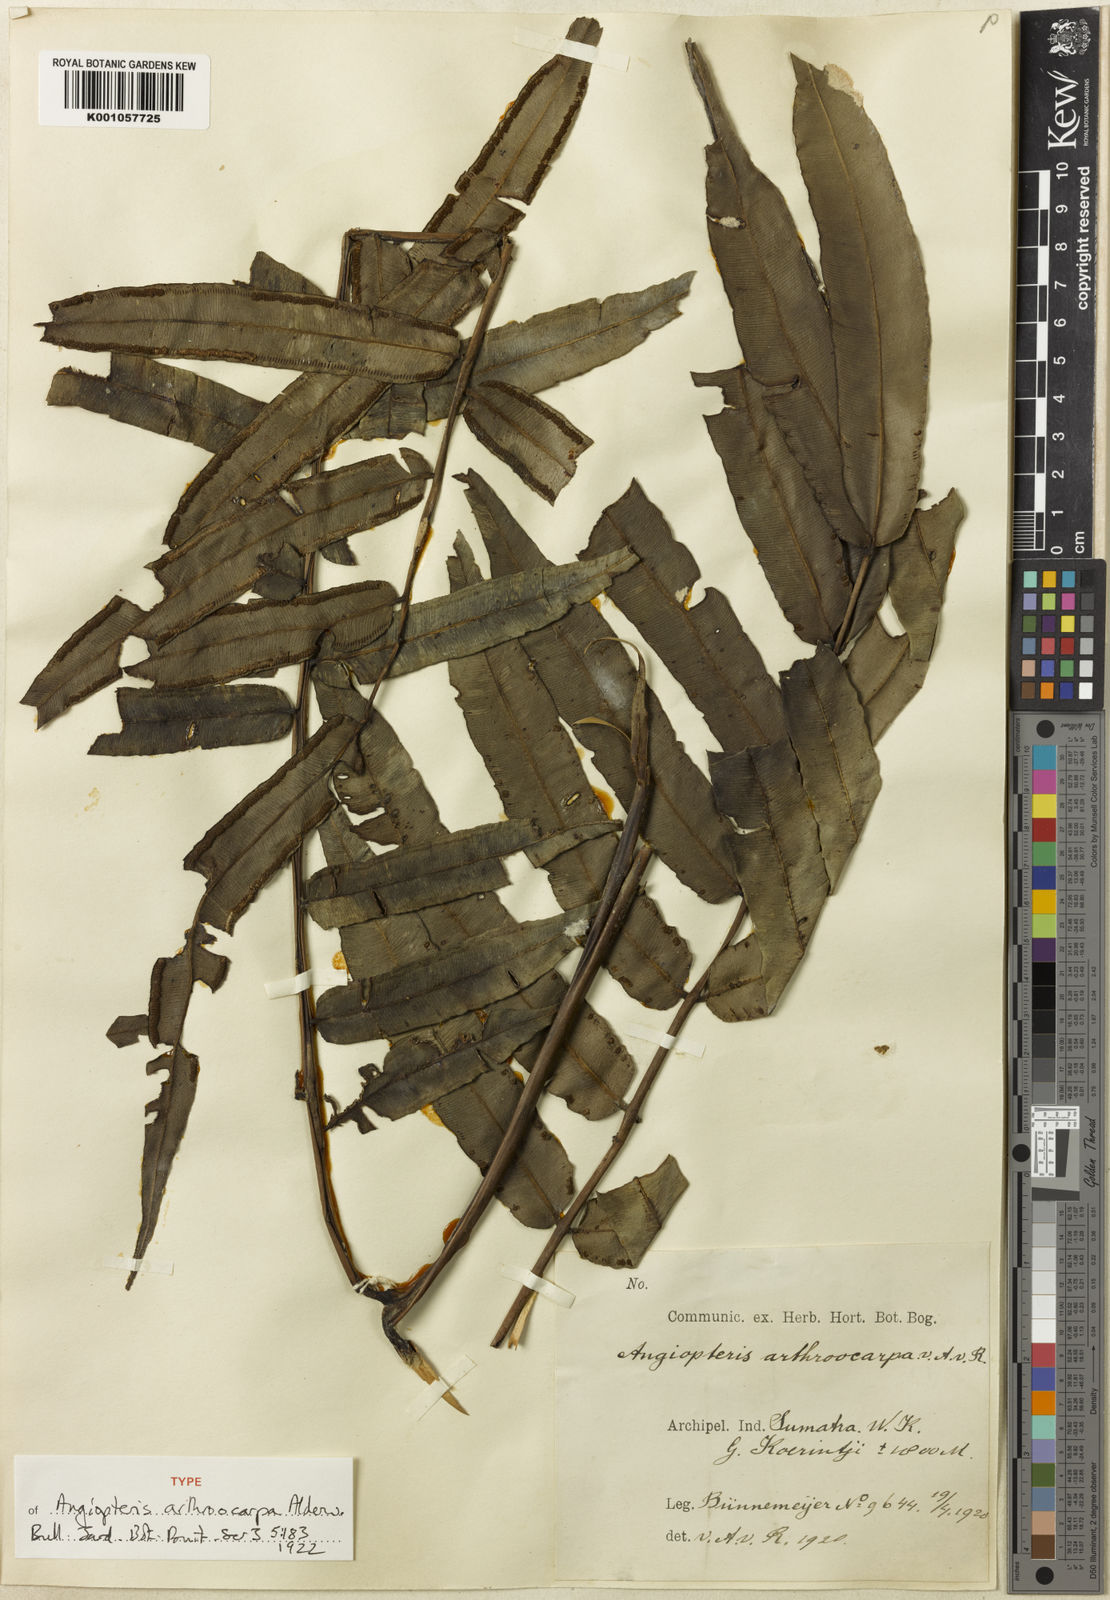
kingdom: Plantae
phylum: Tracheophyta
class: Polypodiopsida
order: Marattiales
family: Marattiaceae
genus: Angiopteris
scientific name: Angiopteris javanica
